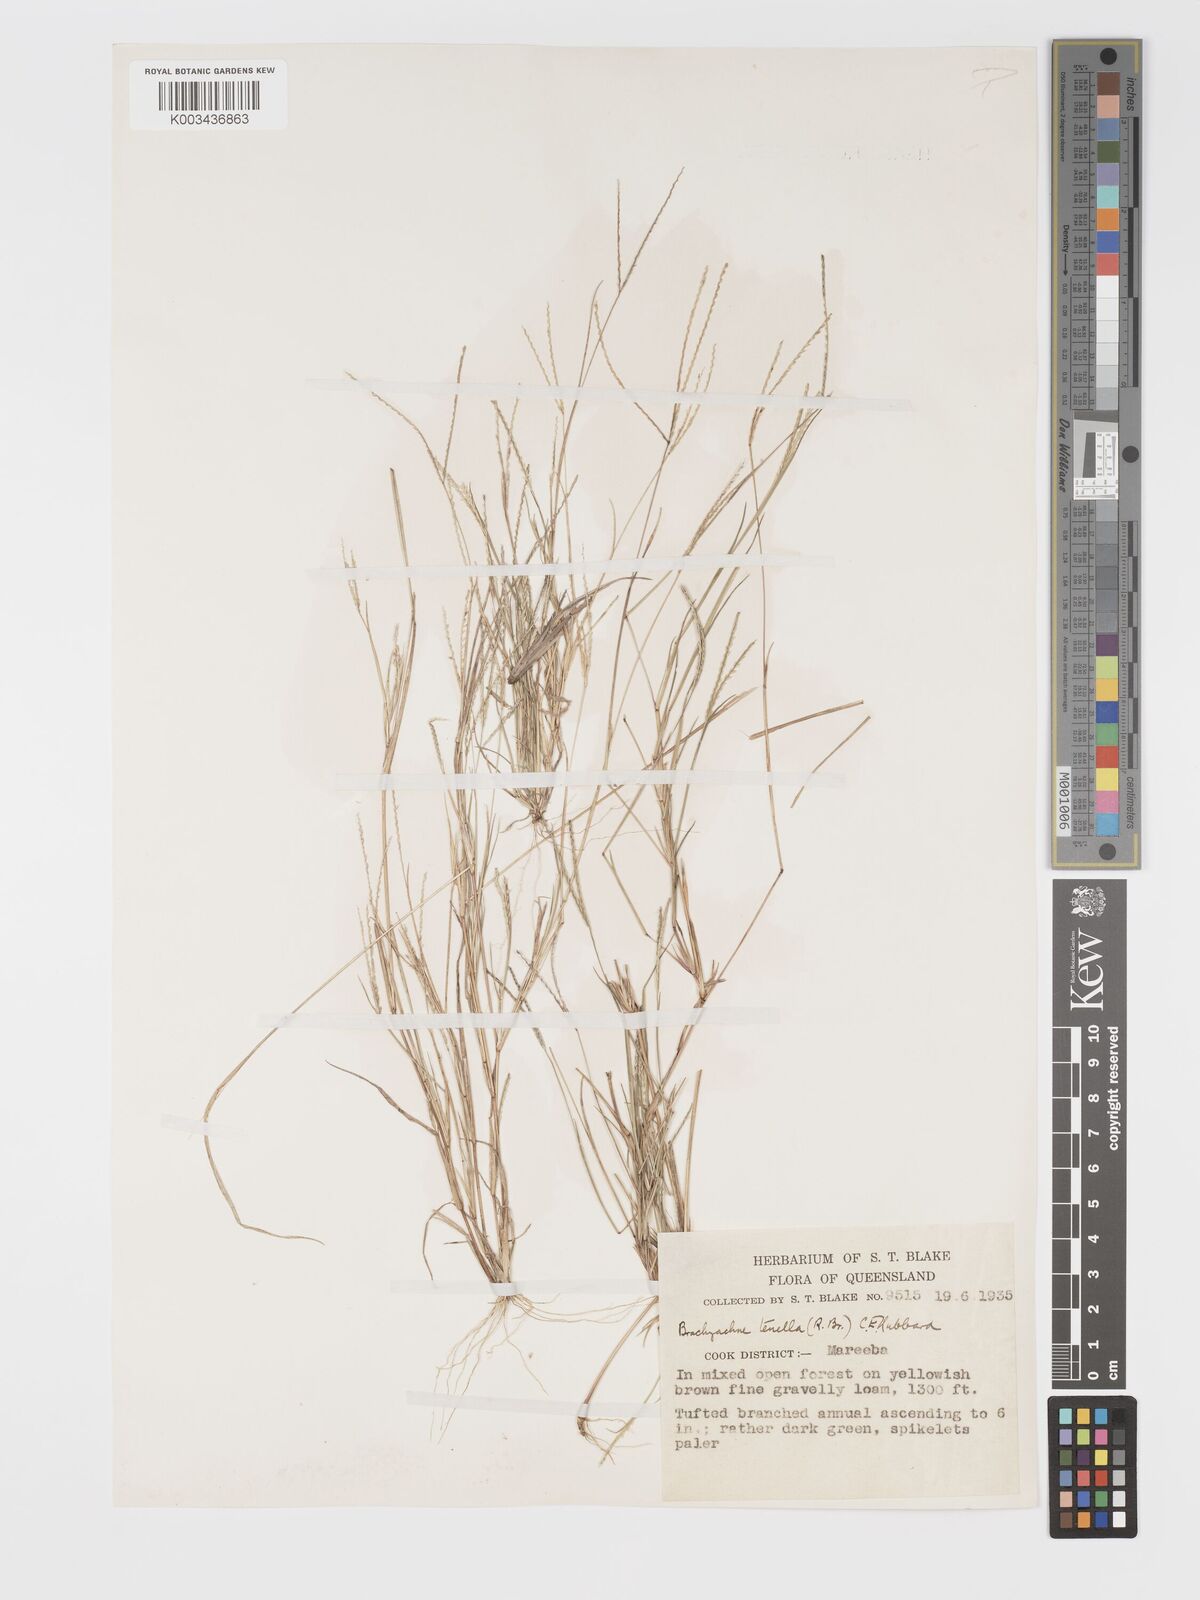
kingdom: Plantae
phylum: Tracheophyta
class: Liliopsida
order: Poales
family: Poaceae
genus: Cynodon
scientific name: Cynodon tenellus
